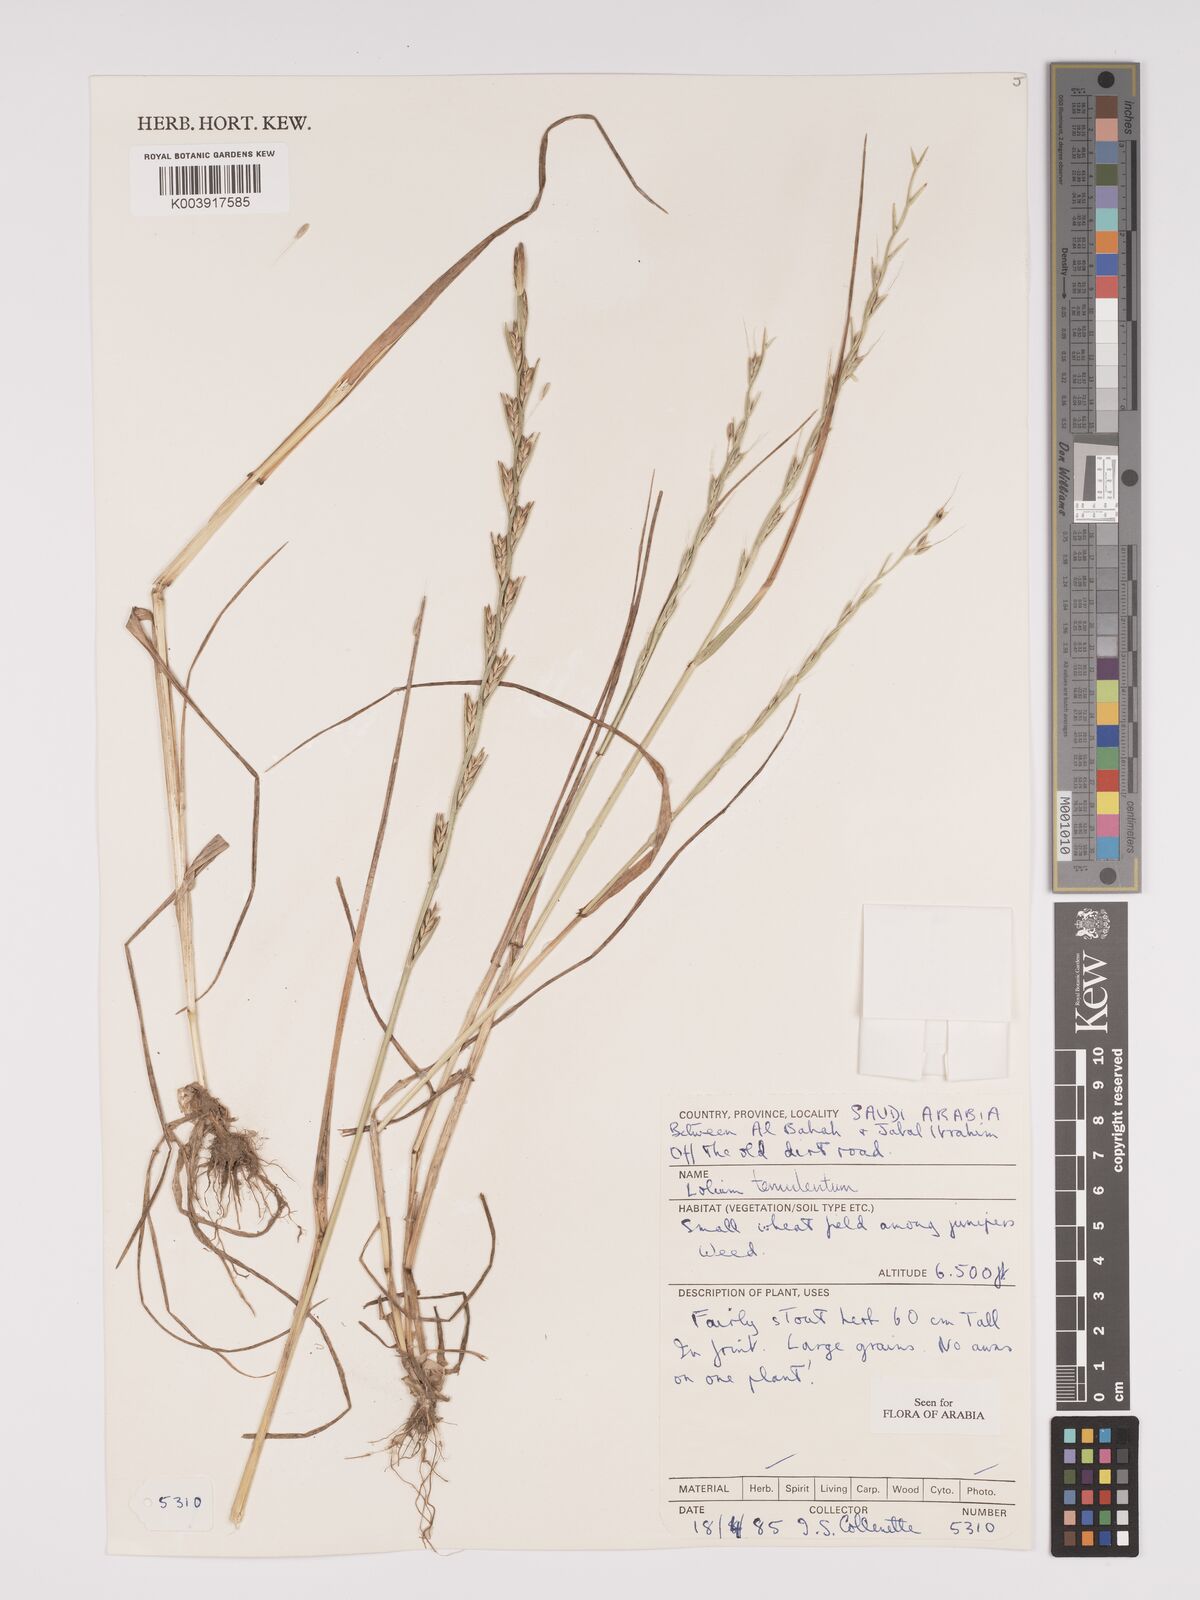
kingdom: Plantae
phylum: Tracheophyta
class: Liliopsida
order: Poales
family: Poaceae
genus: Lolium
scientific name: Lolium temulentum
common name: Darnel
